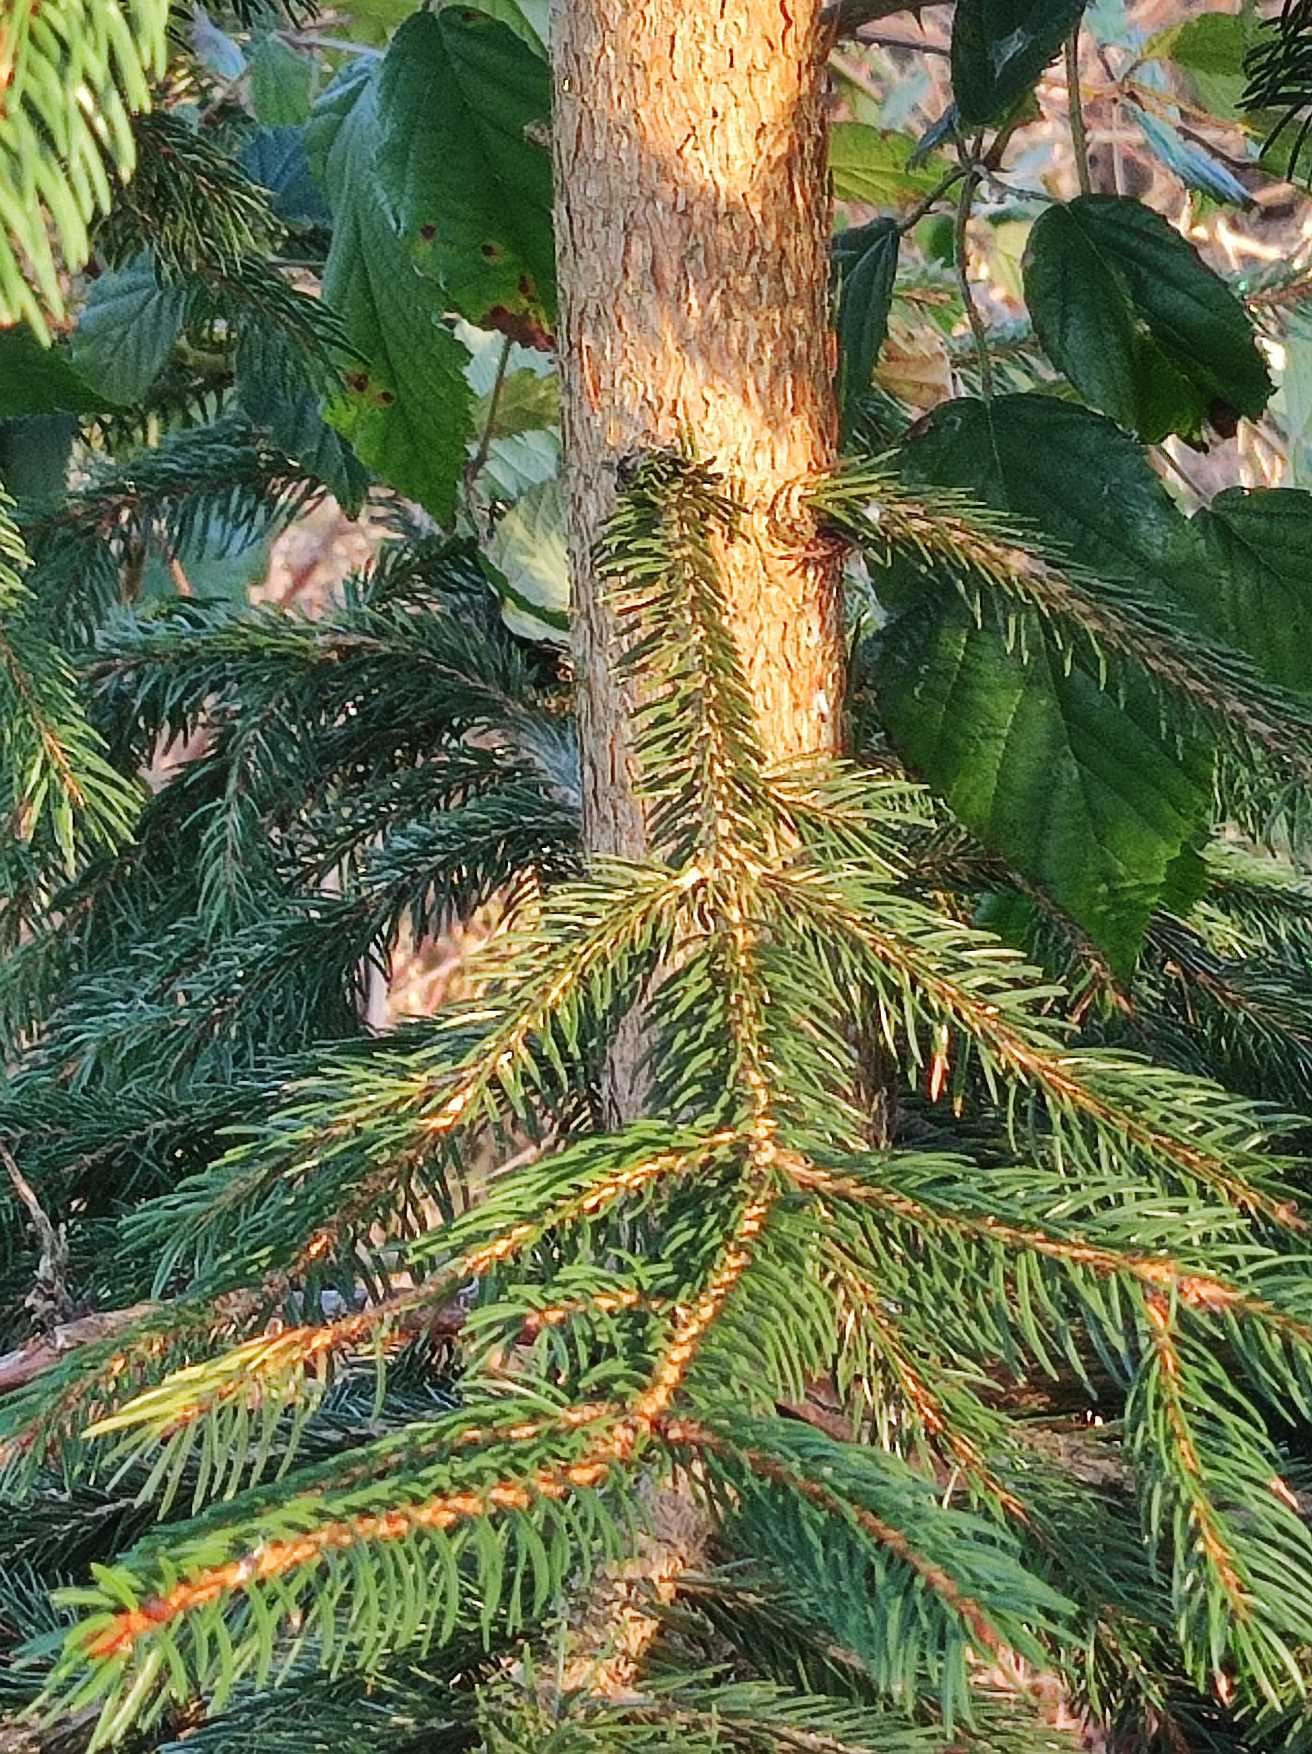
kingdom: Plantae
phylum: Tracheophyta
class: Pinopsida
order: Pinales
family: Pinaceae
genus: Picea
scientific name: Picea abies
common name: Rød-gran
